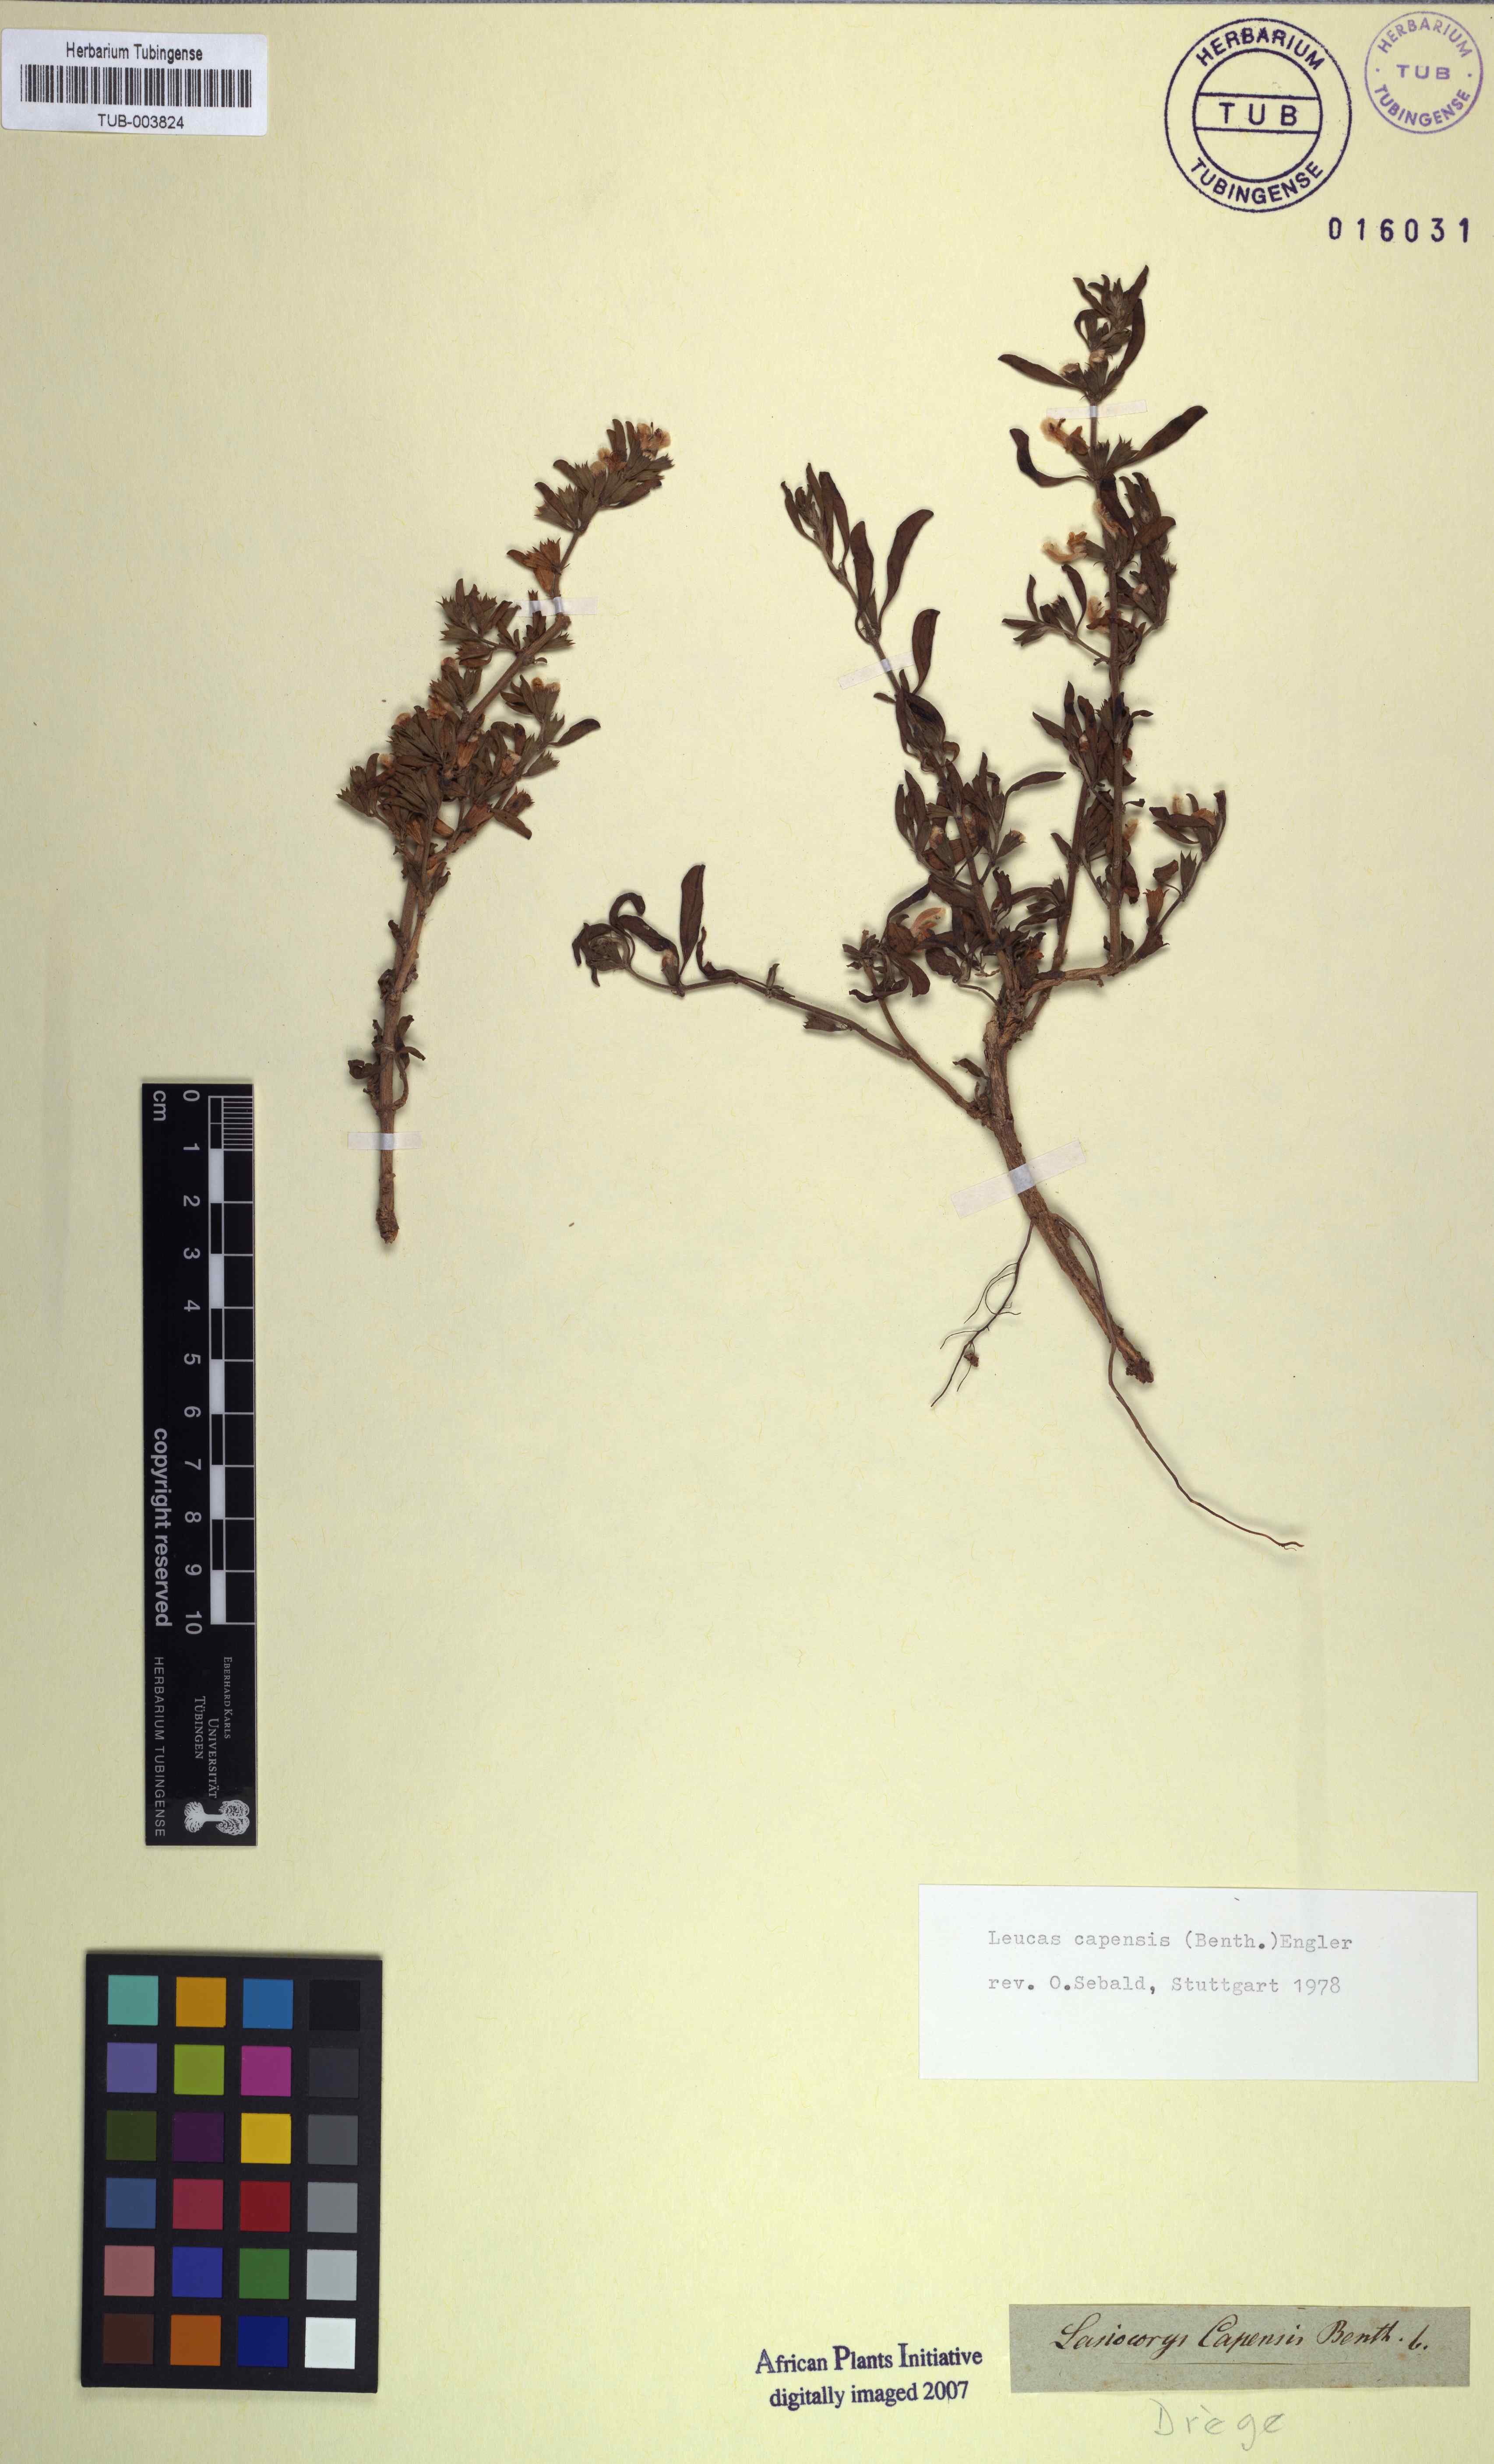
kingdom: Plantae
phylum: Tracheophyta
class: Magnoliopsida
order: Lamiales
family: Lamiaceae
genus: Leucas
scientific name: Leucas capensis
